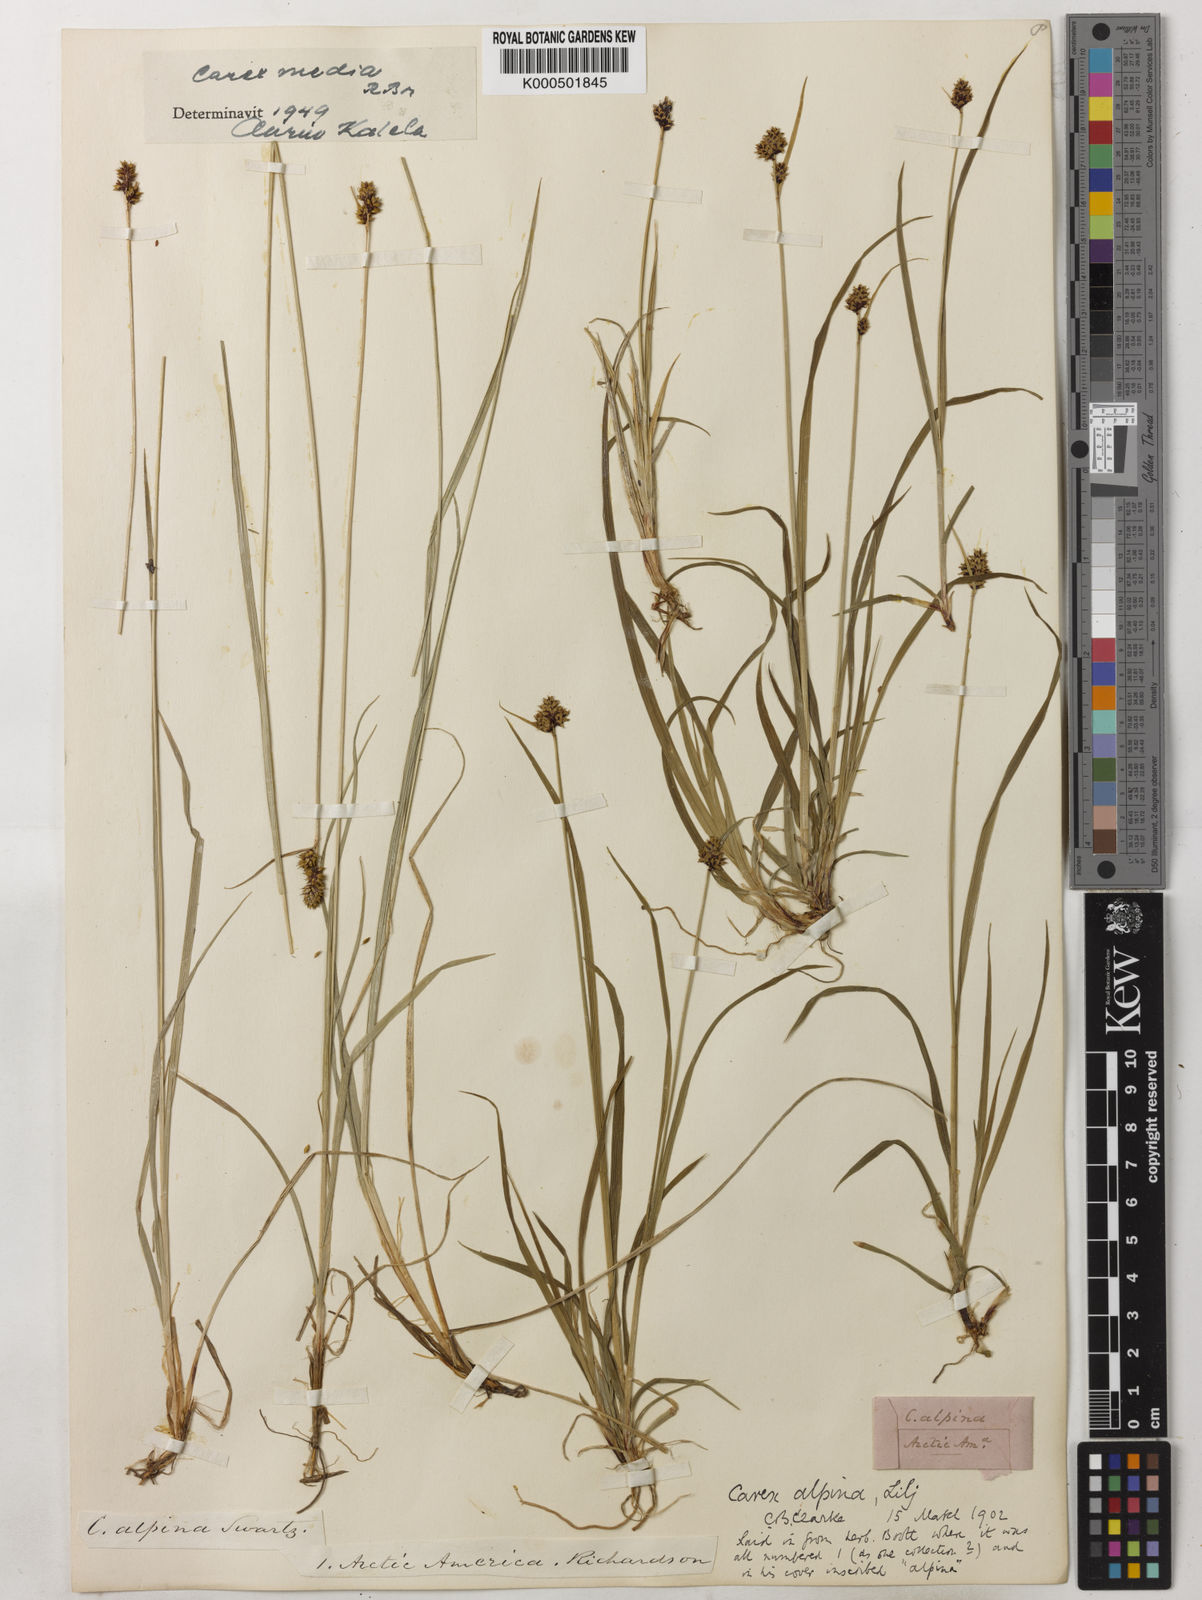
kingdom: Plantae
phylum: Tracheophyta
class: Liliopsida
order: Poales
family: Cyperaceae
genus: Carex
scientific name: Carex media
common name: Alpine sedge
